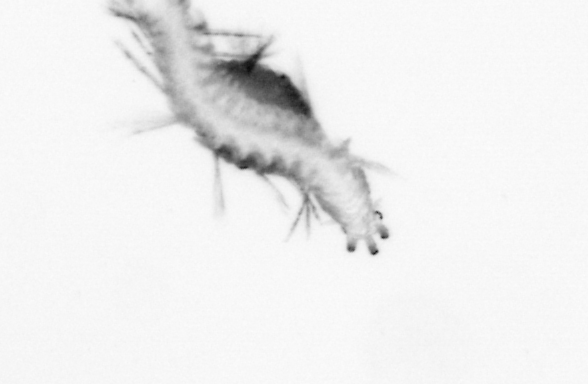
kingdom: Animalia
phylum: Annelida
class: Polychaeta
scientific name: Polychaeta
